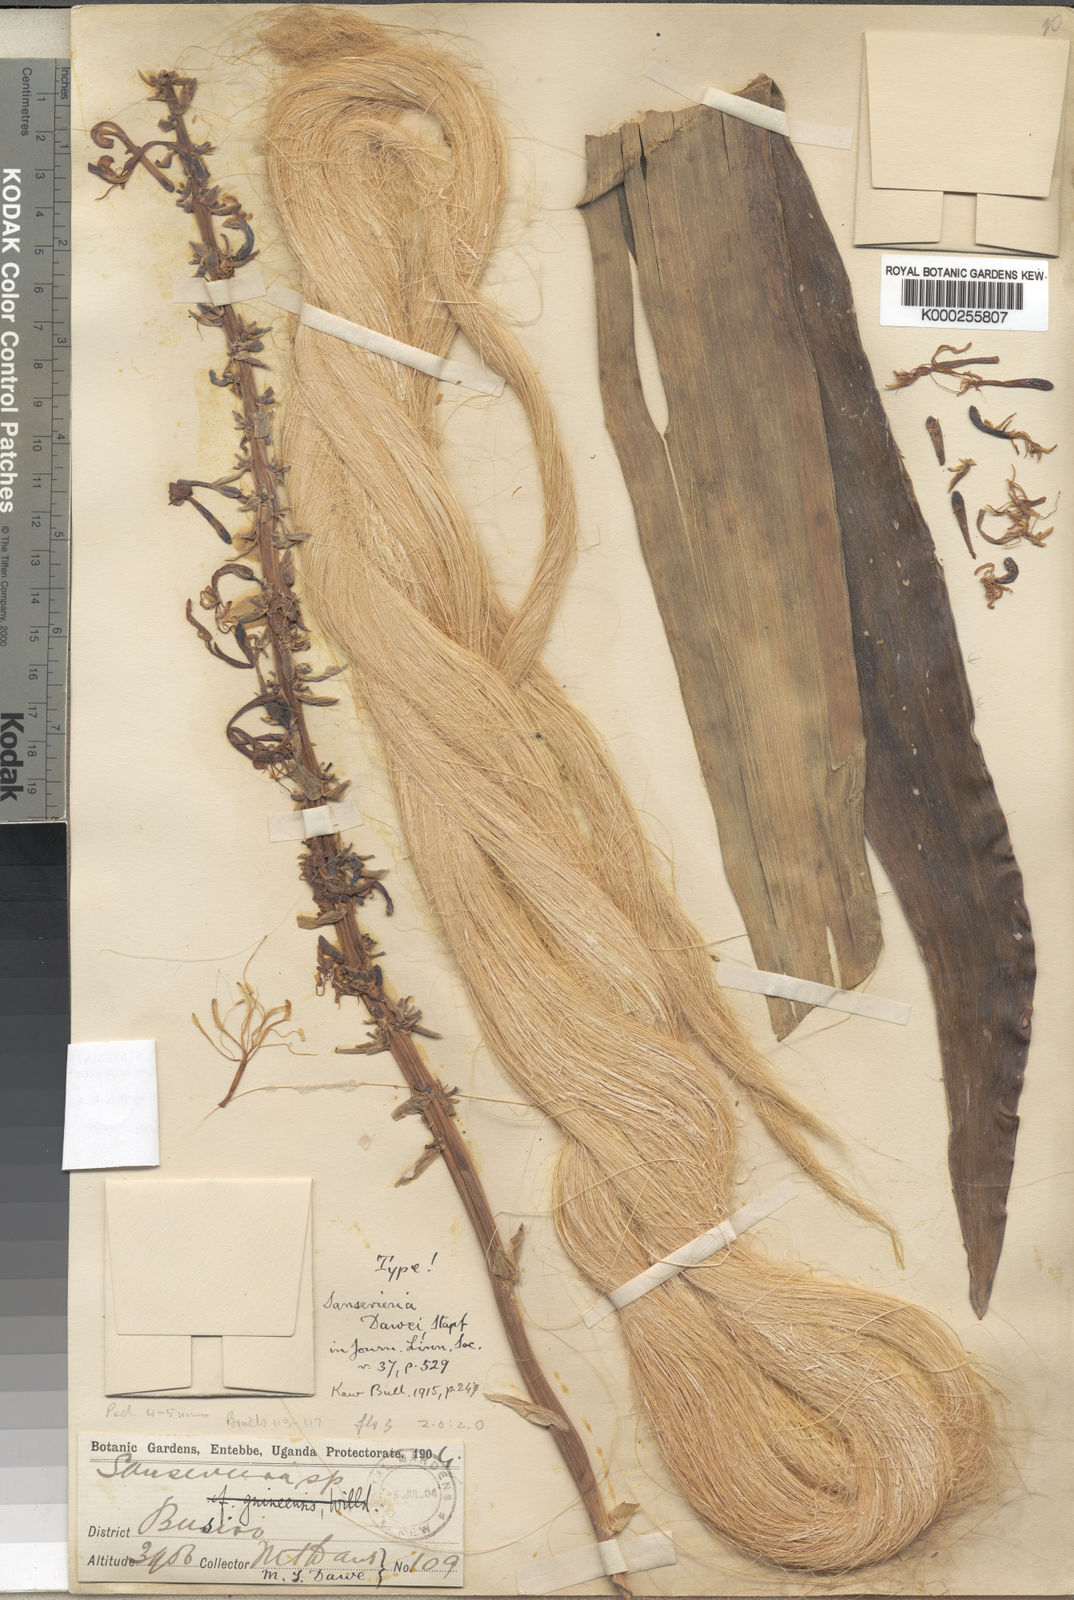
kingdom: Plantae
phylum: Tracheophyta
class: Liliopsida
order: Asparagales
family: Asparagaceae
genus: Dracaena
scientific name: Dracaena dawei
